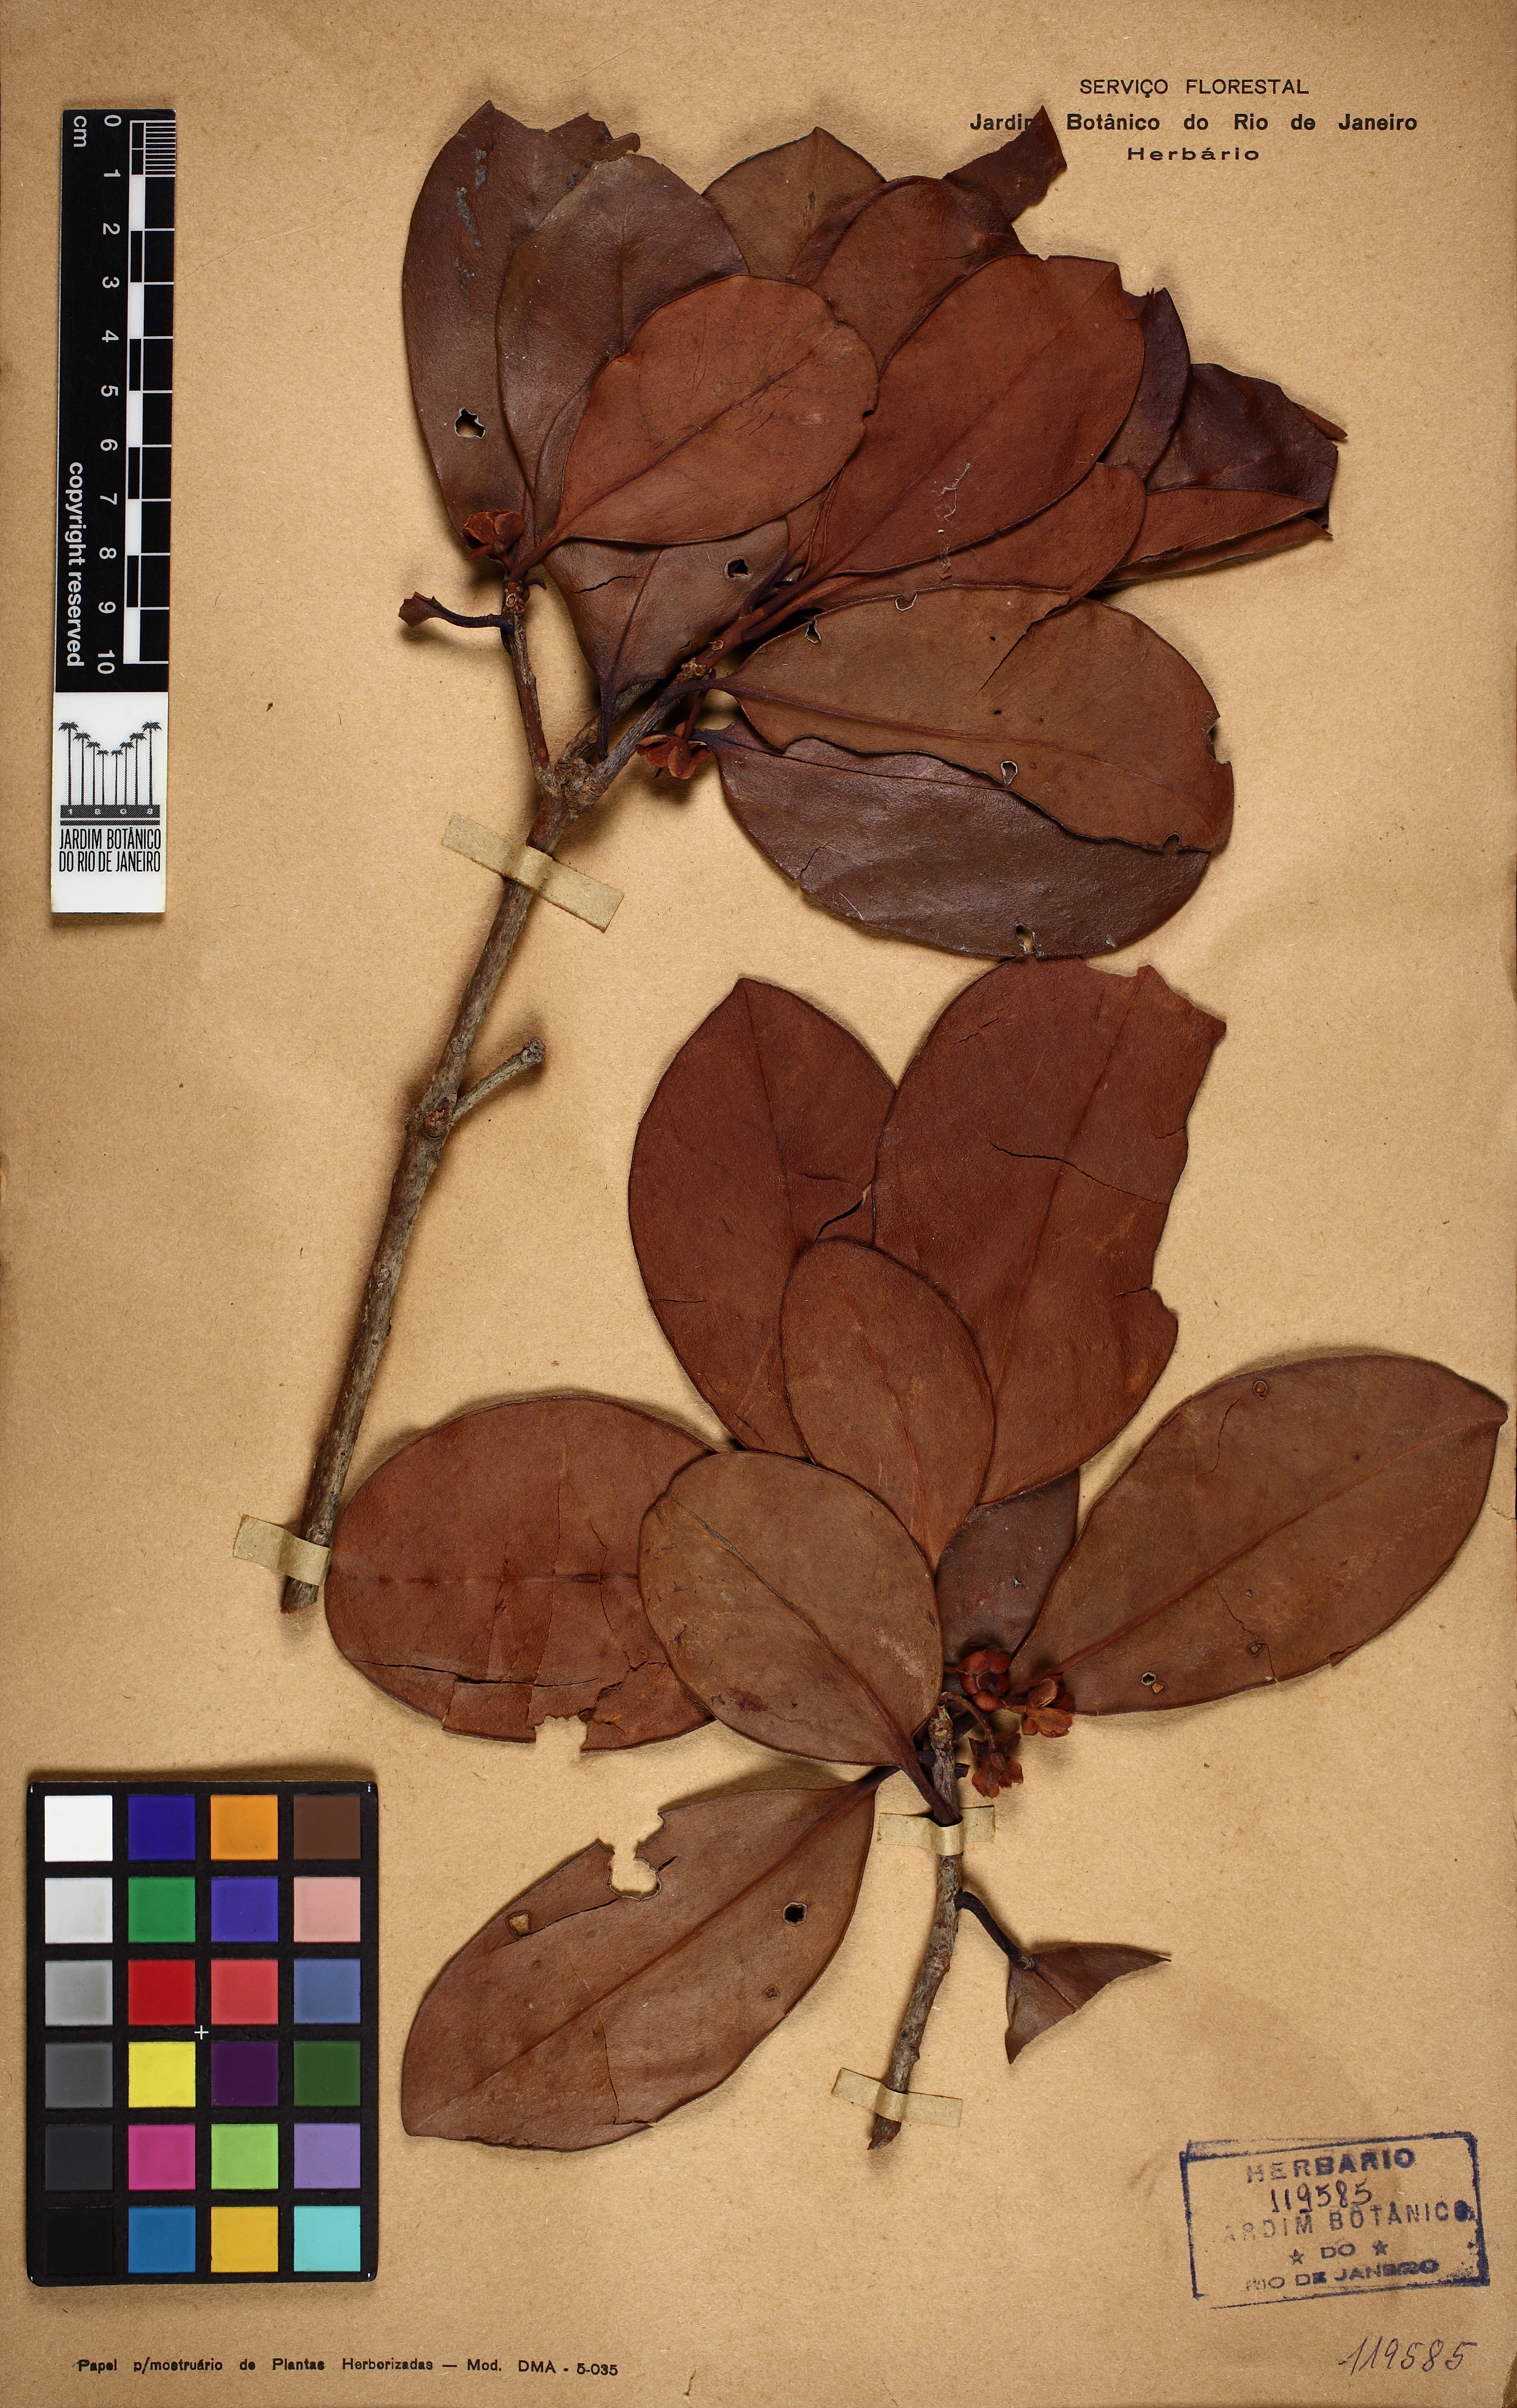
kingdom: Plantae
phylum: Tracheophyta
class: Magnoliopsida
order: Ericales
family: Pentaphylacaceae
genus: Ternstroemia
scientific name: Ternstroemia brasiliensis
